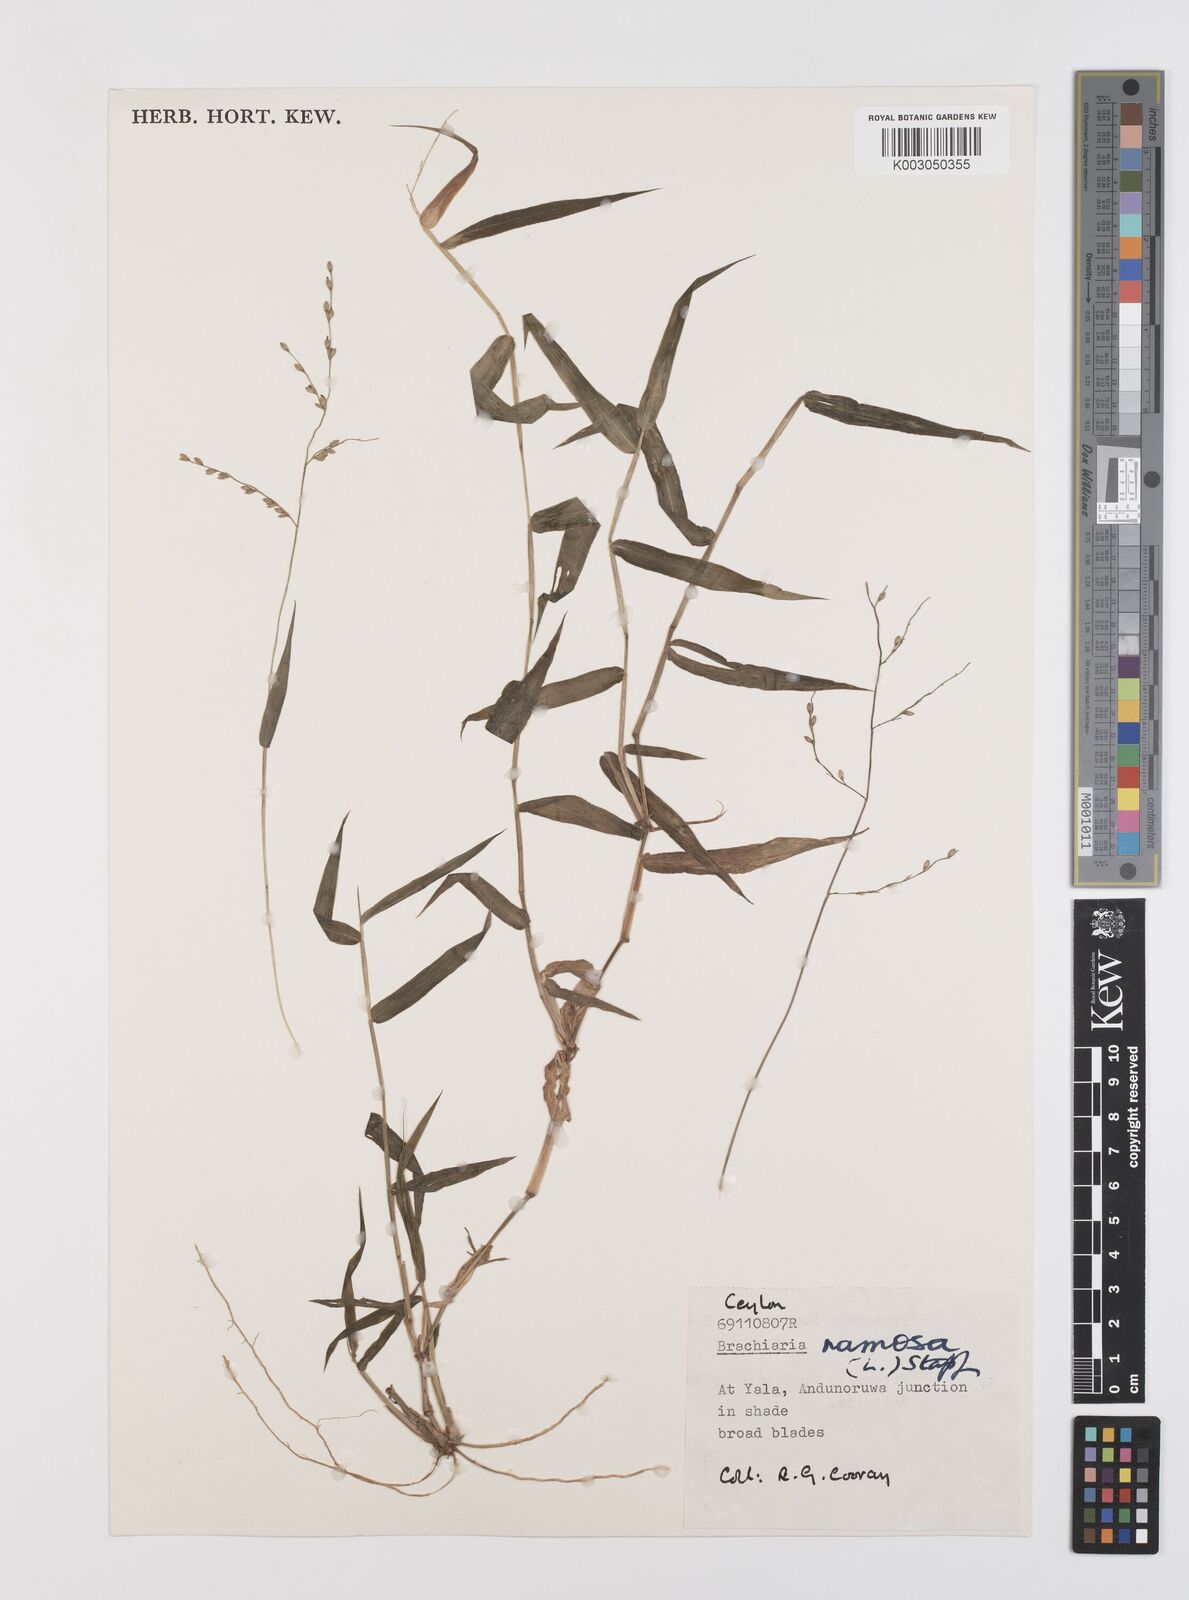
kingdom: Plantae
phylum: Tracheophyta
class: Liliopsida
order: Poales
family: Poaceae
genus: Urochloa
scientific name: Urochloa ramosa
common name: Browntop millet
